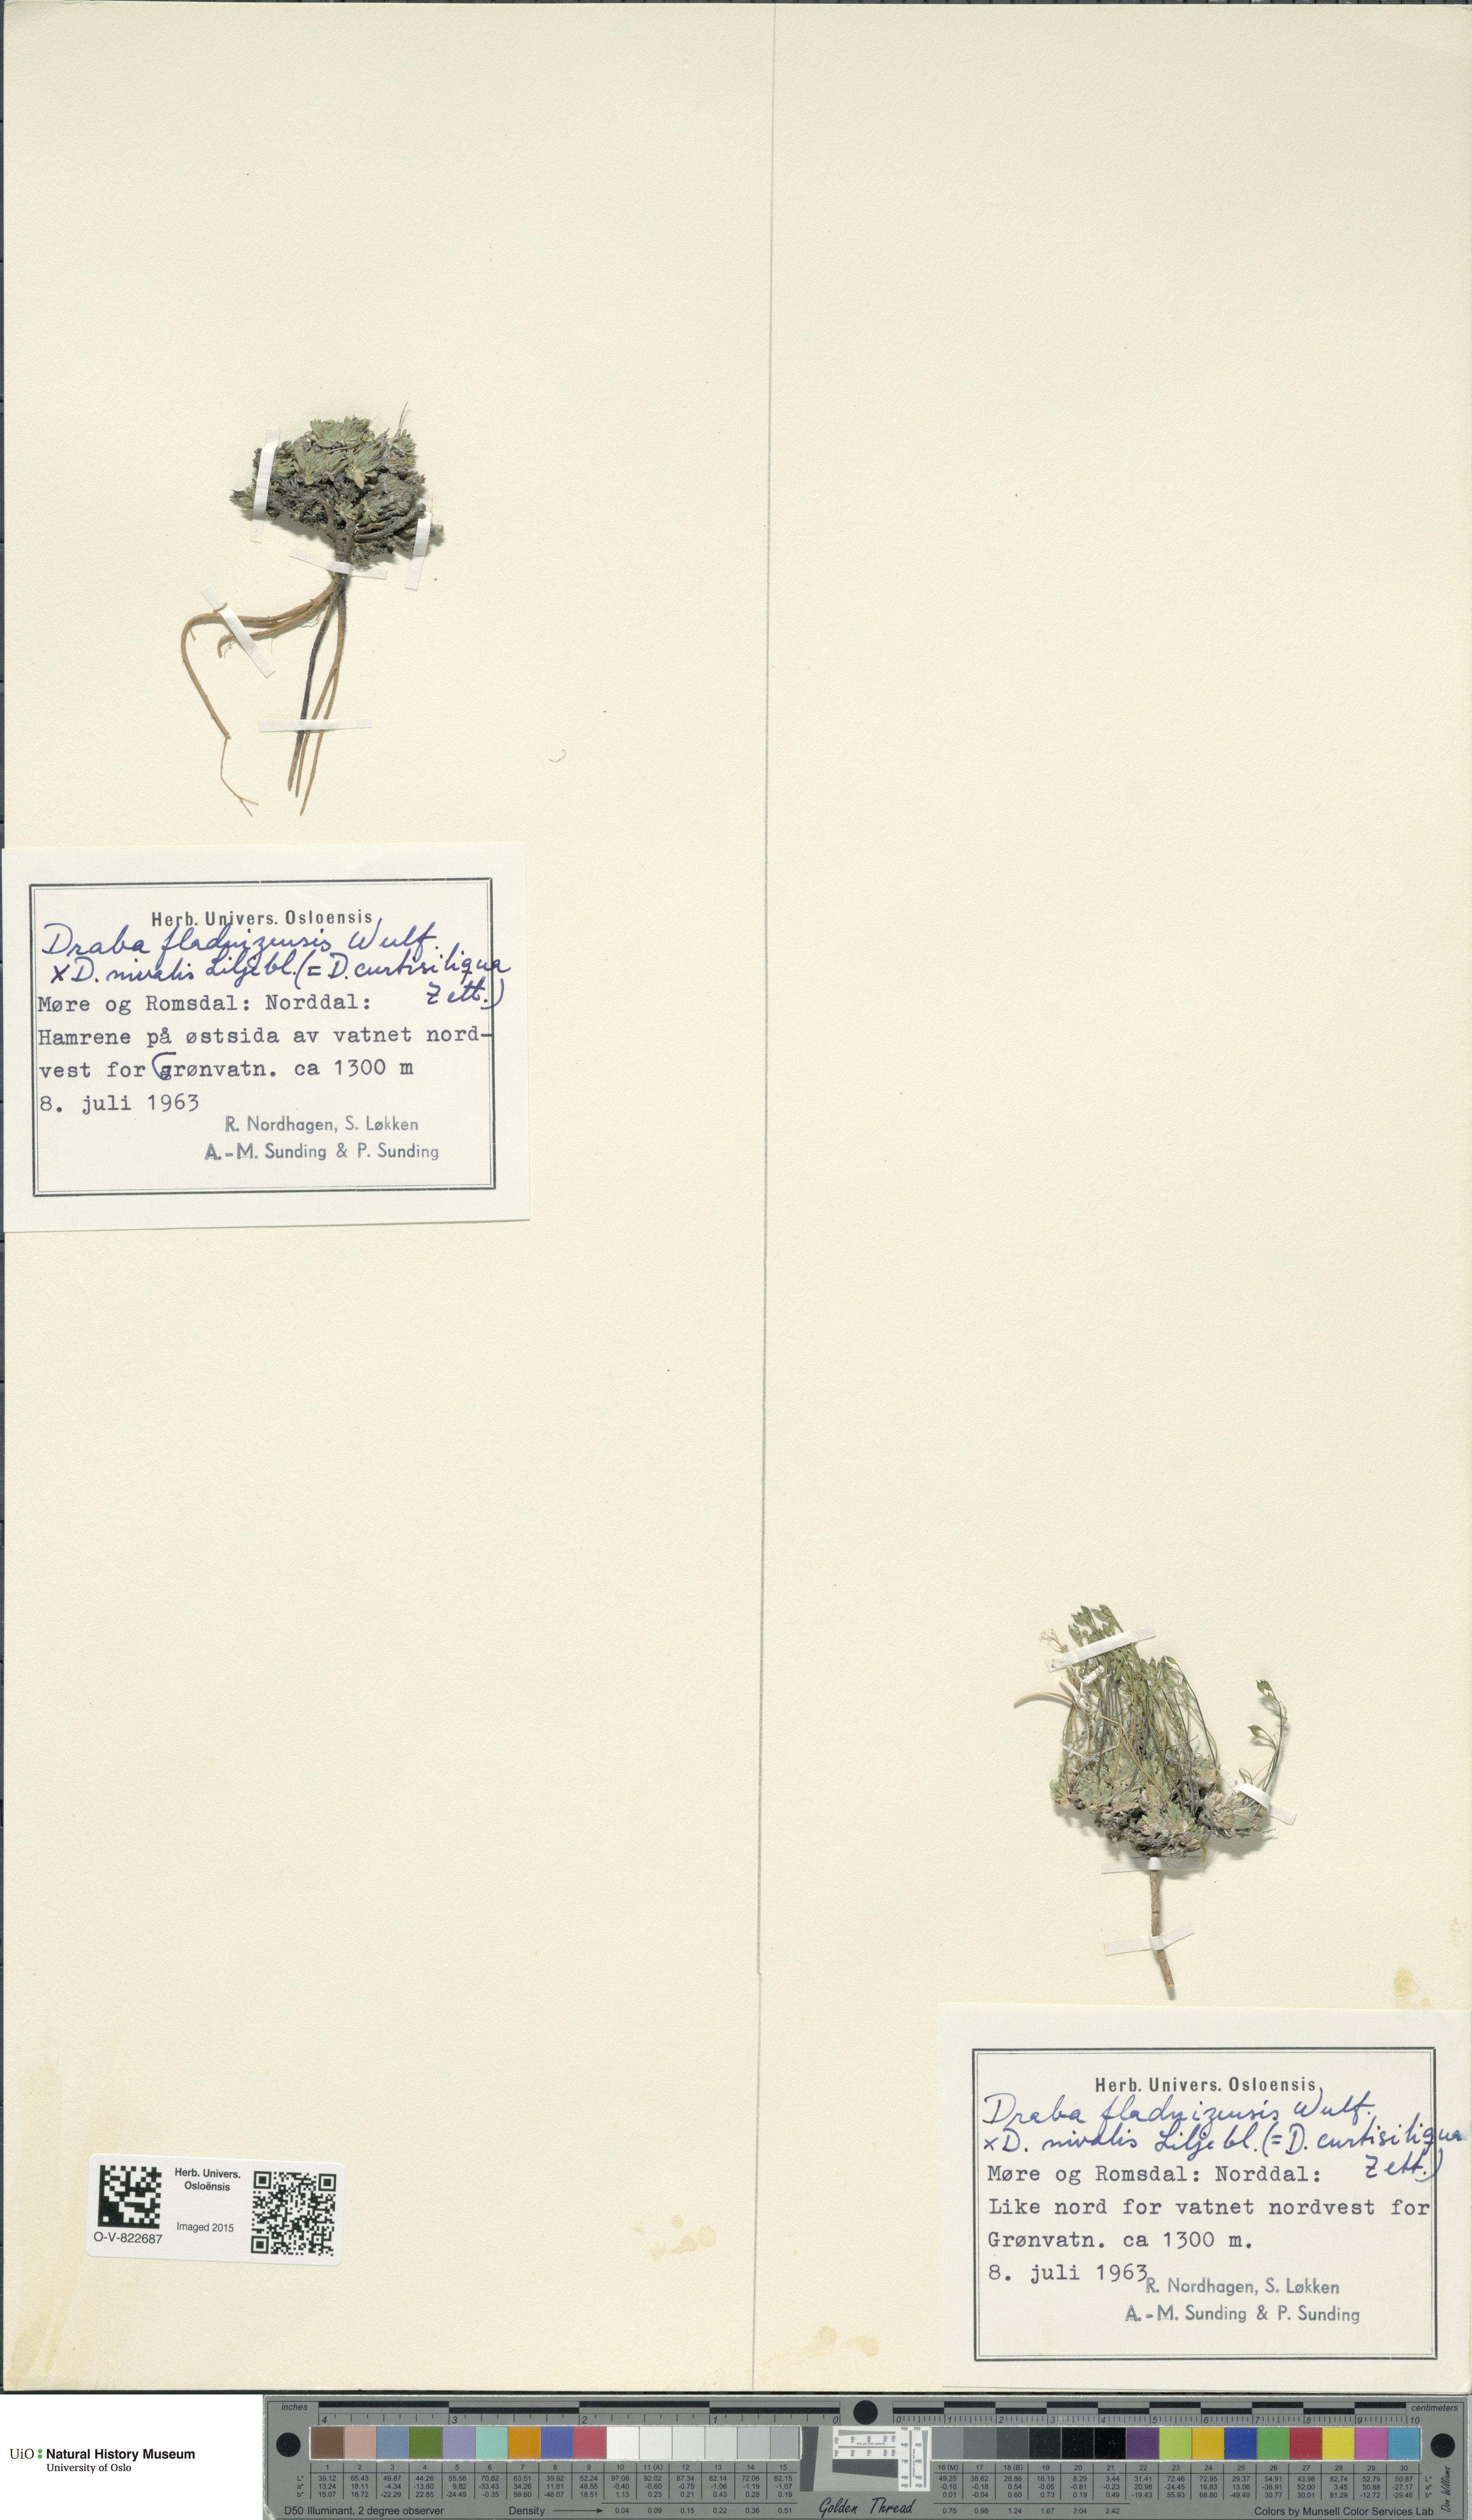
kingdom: Plantae
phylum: Tracheophyta
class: Magnoliopsida
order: Brassicales
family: Brassicaceae
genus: Draba
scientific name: Draba
